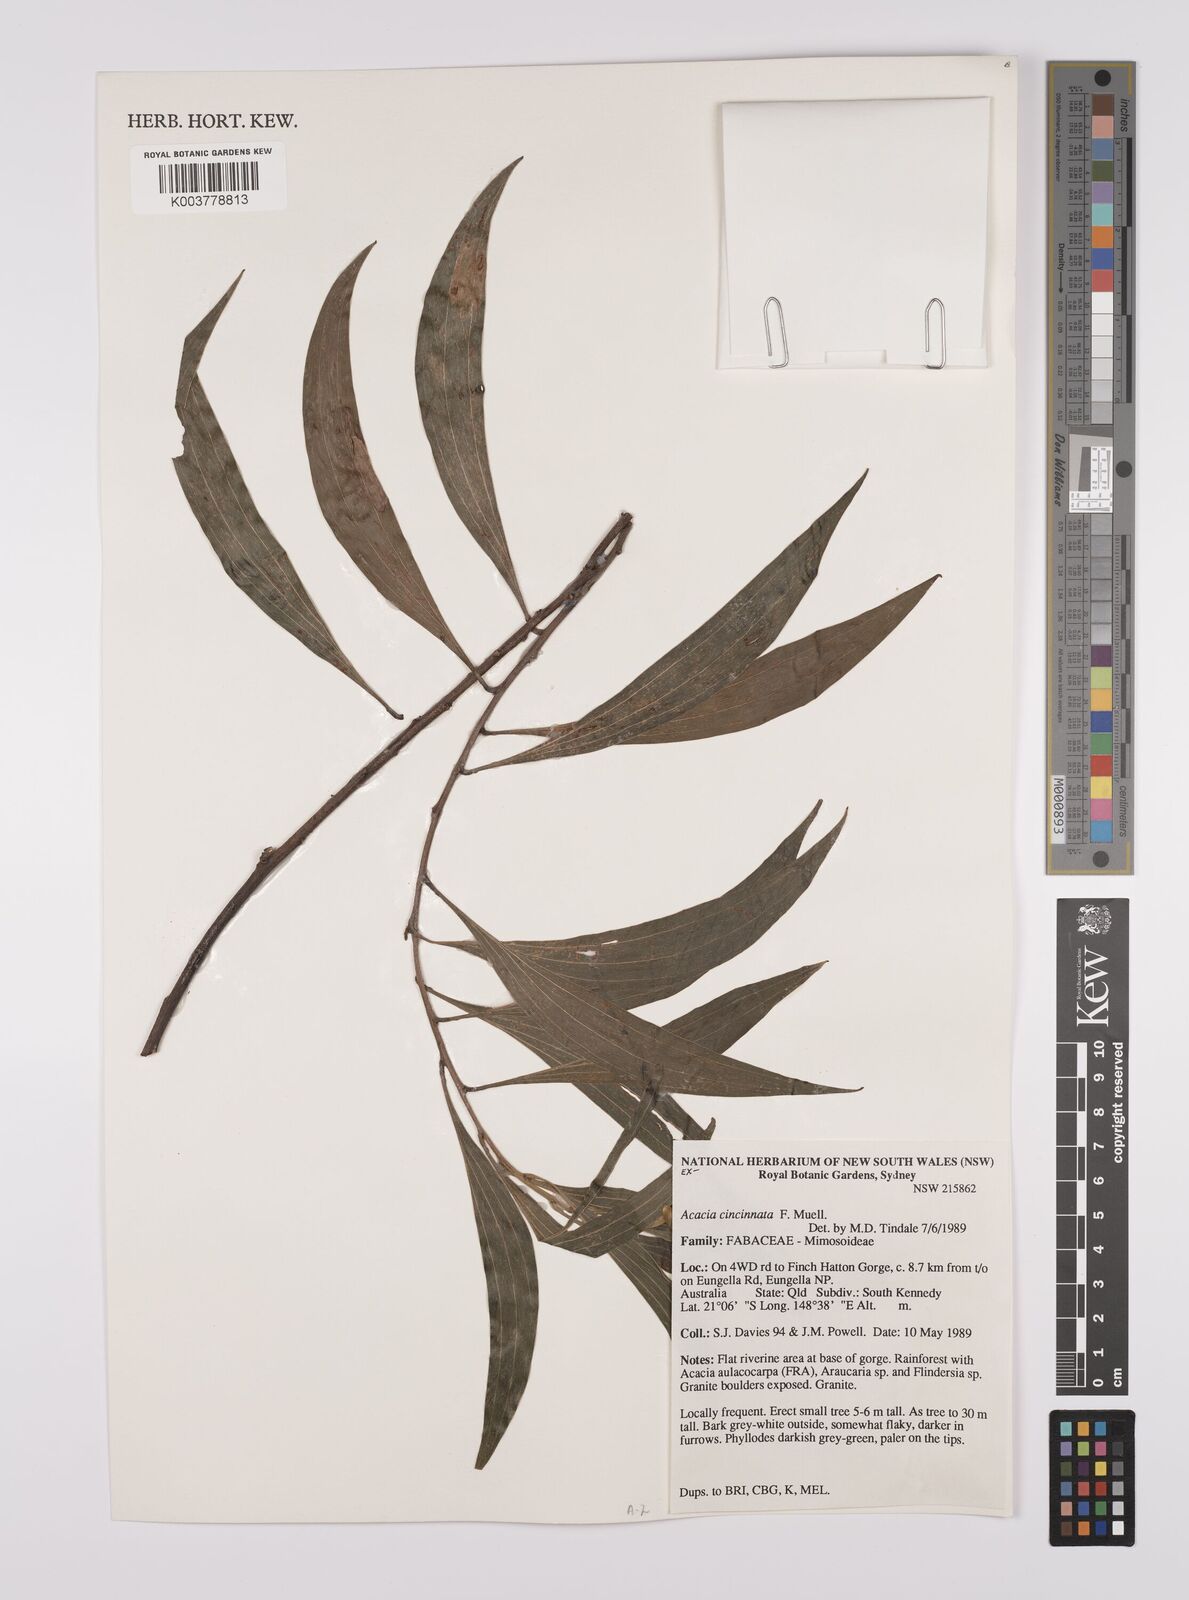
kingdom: Plantae
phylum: Tracheophyta
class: Magnoliopsida
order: Fabales
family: Fabaceae
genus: Acacia
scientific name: Acacia cincinnata
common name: Daintree wattle
